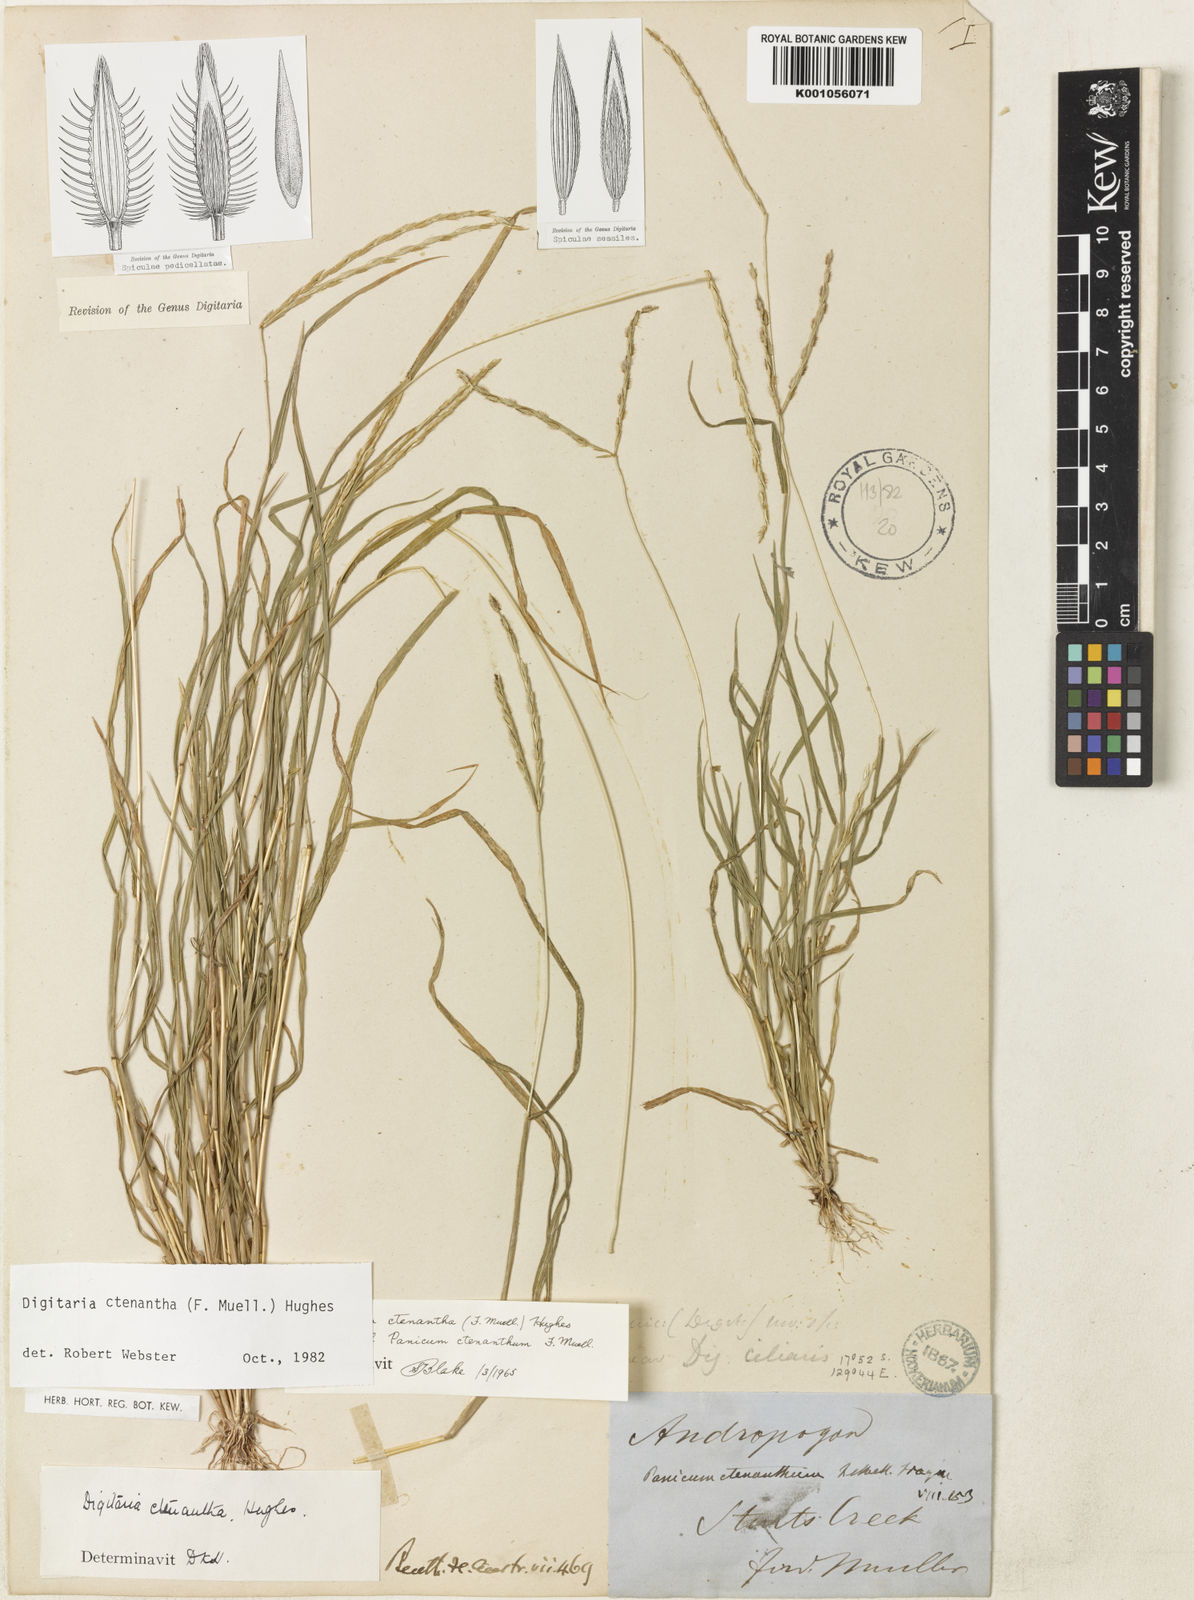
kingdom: Plantae
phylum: Tracheophyta
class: Liliopsida
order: Poales
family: Poaceae
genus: Digitaria
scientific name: Digitaria ctenantha
